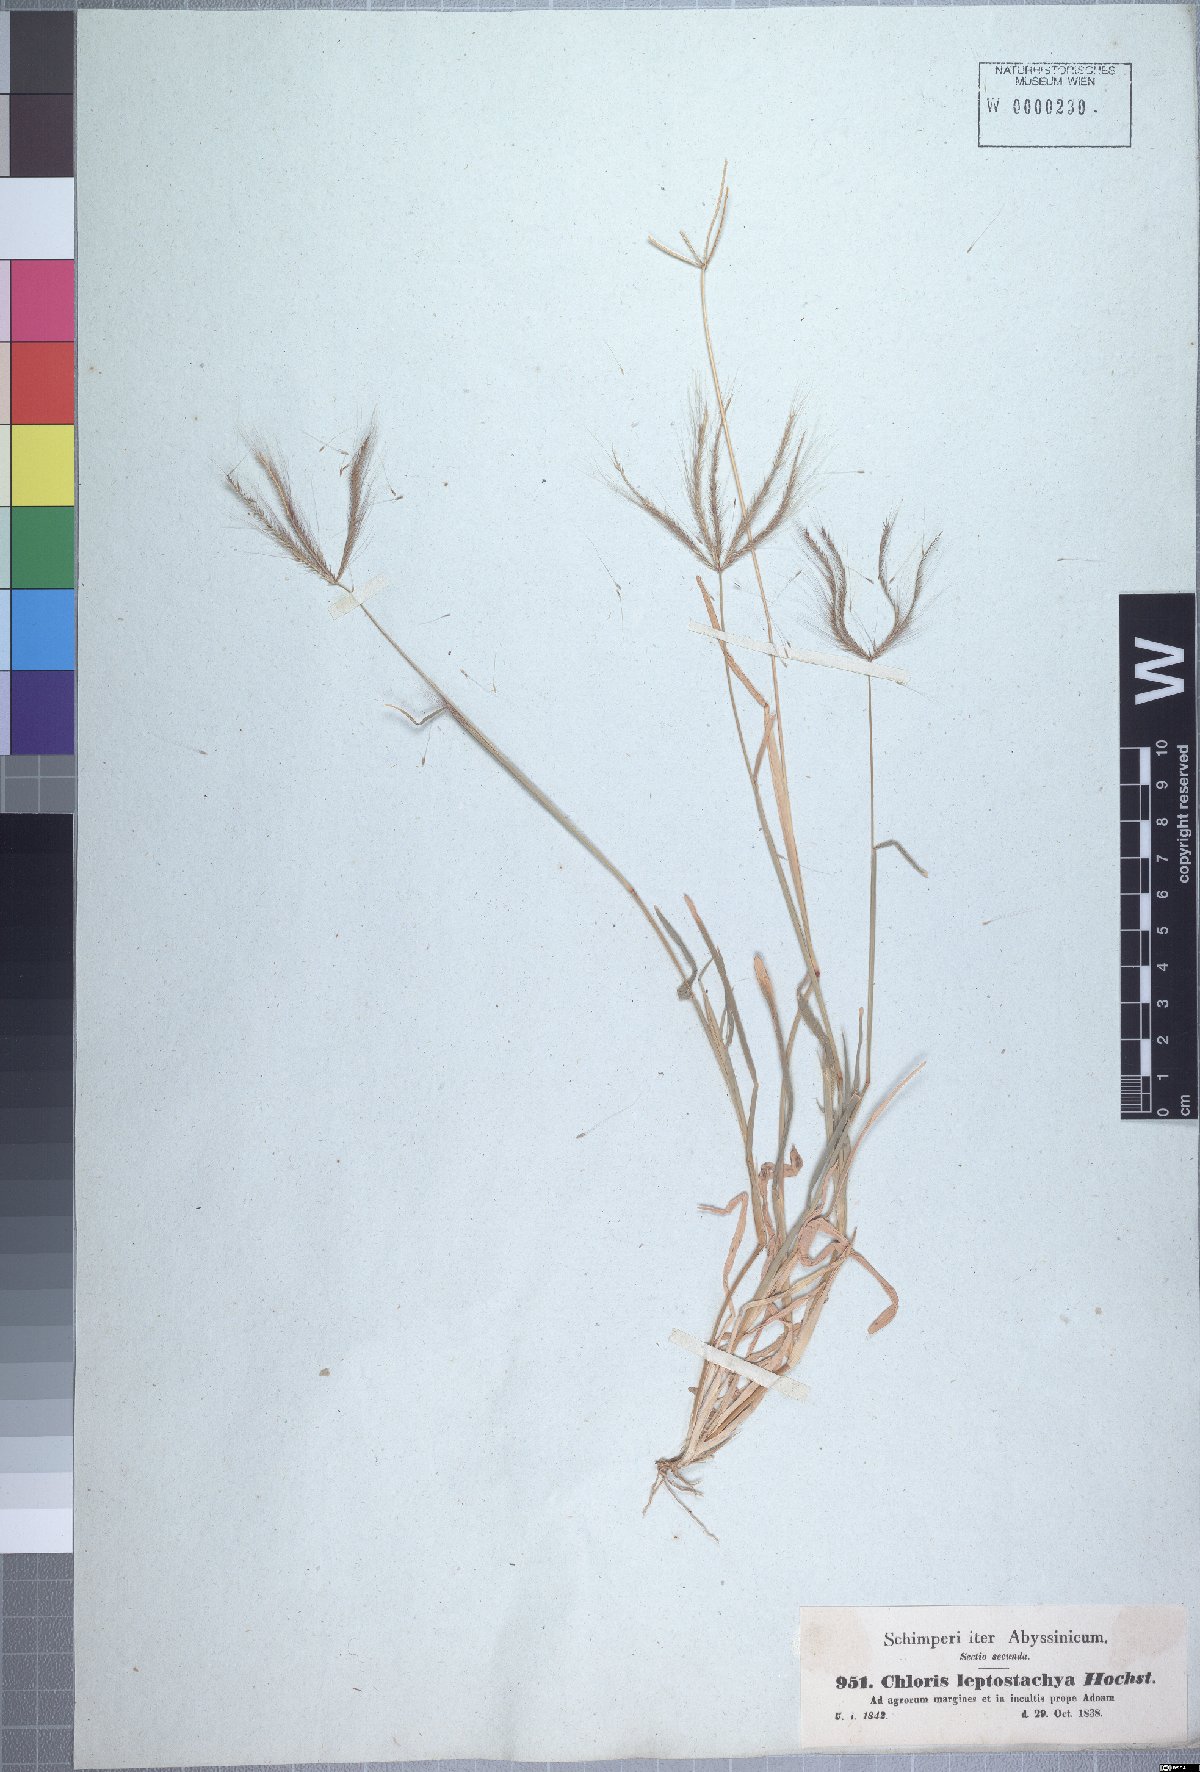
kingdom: Plantae
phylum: Tracheophyta
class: Liliopsida
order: Poales
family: Poaceae
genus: Chloris
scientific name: Chloris pycnothrix
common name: Spiderweb chloris
